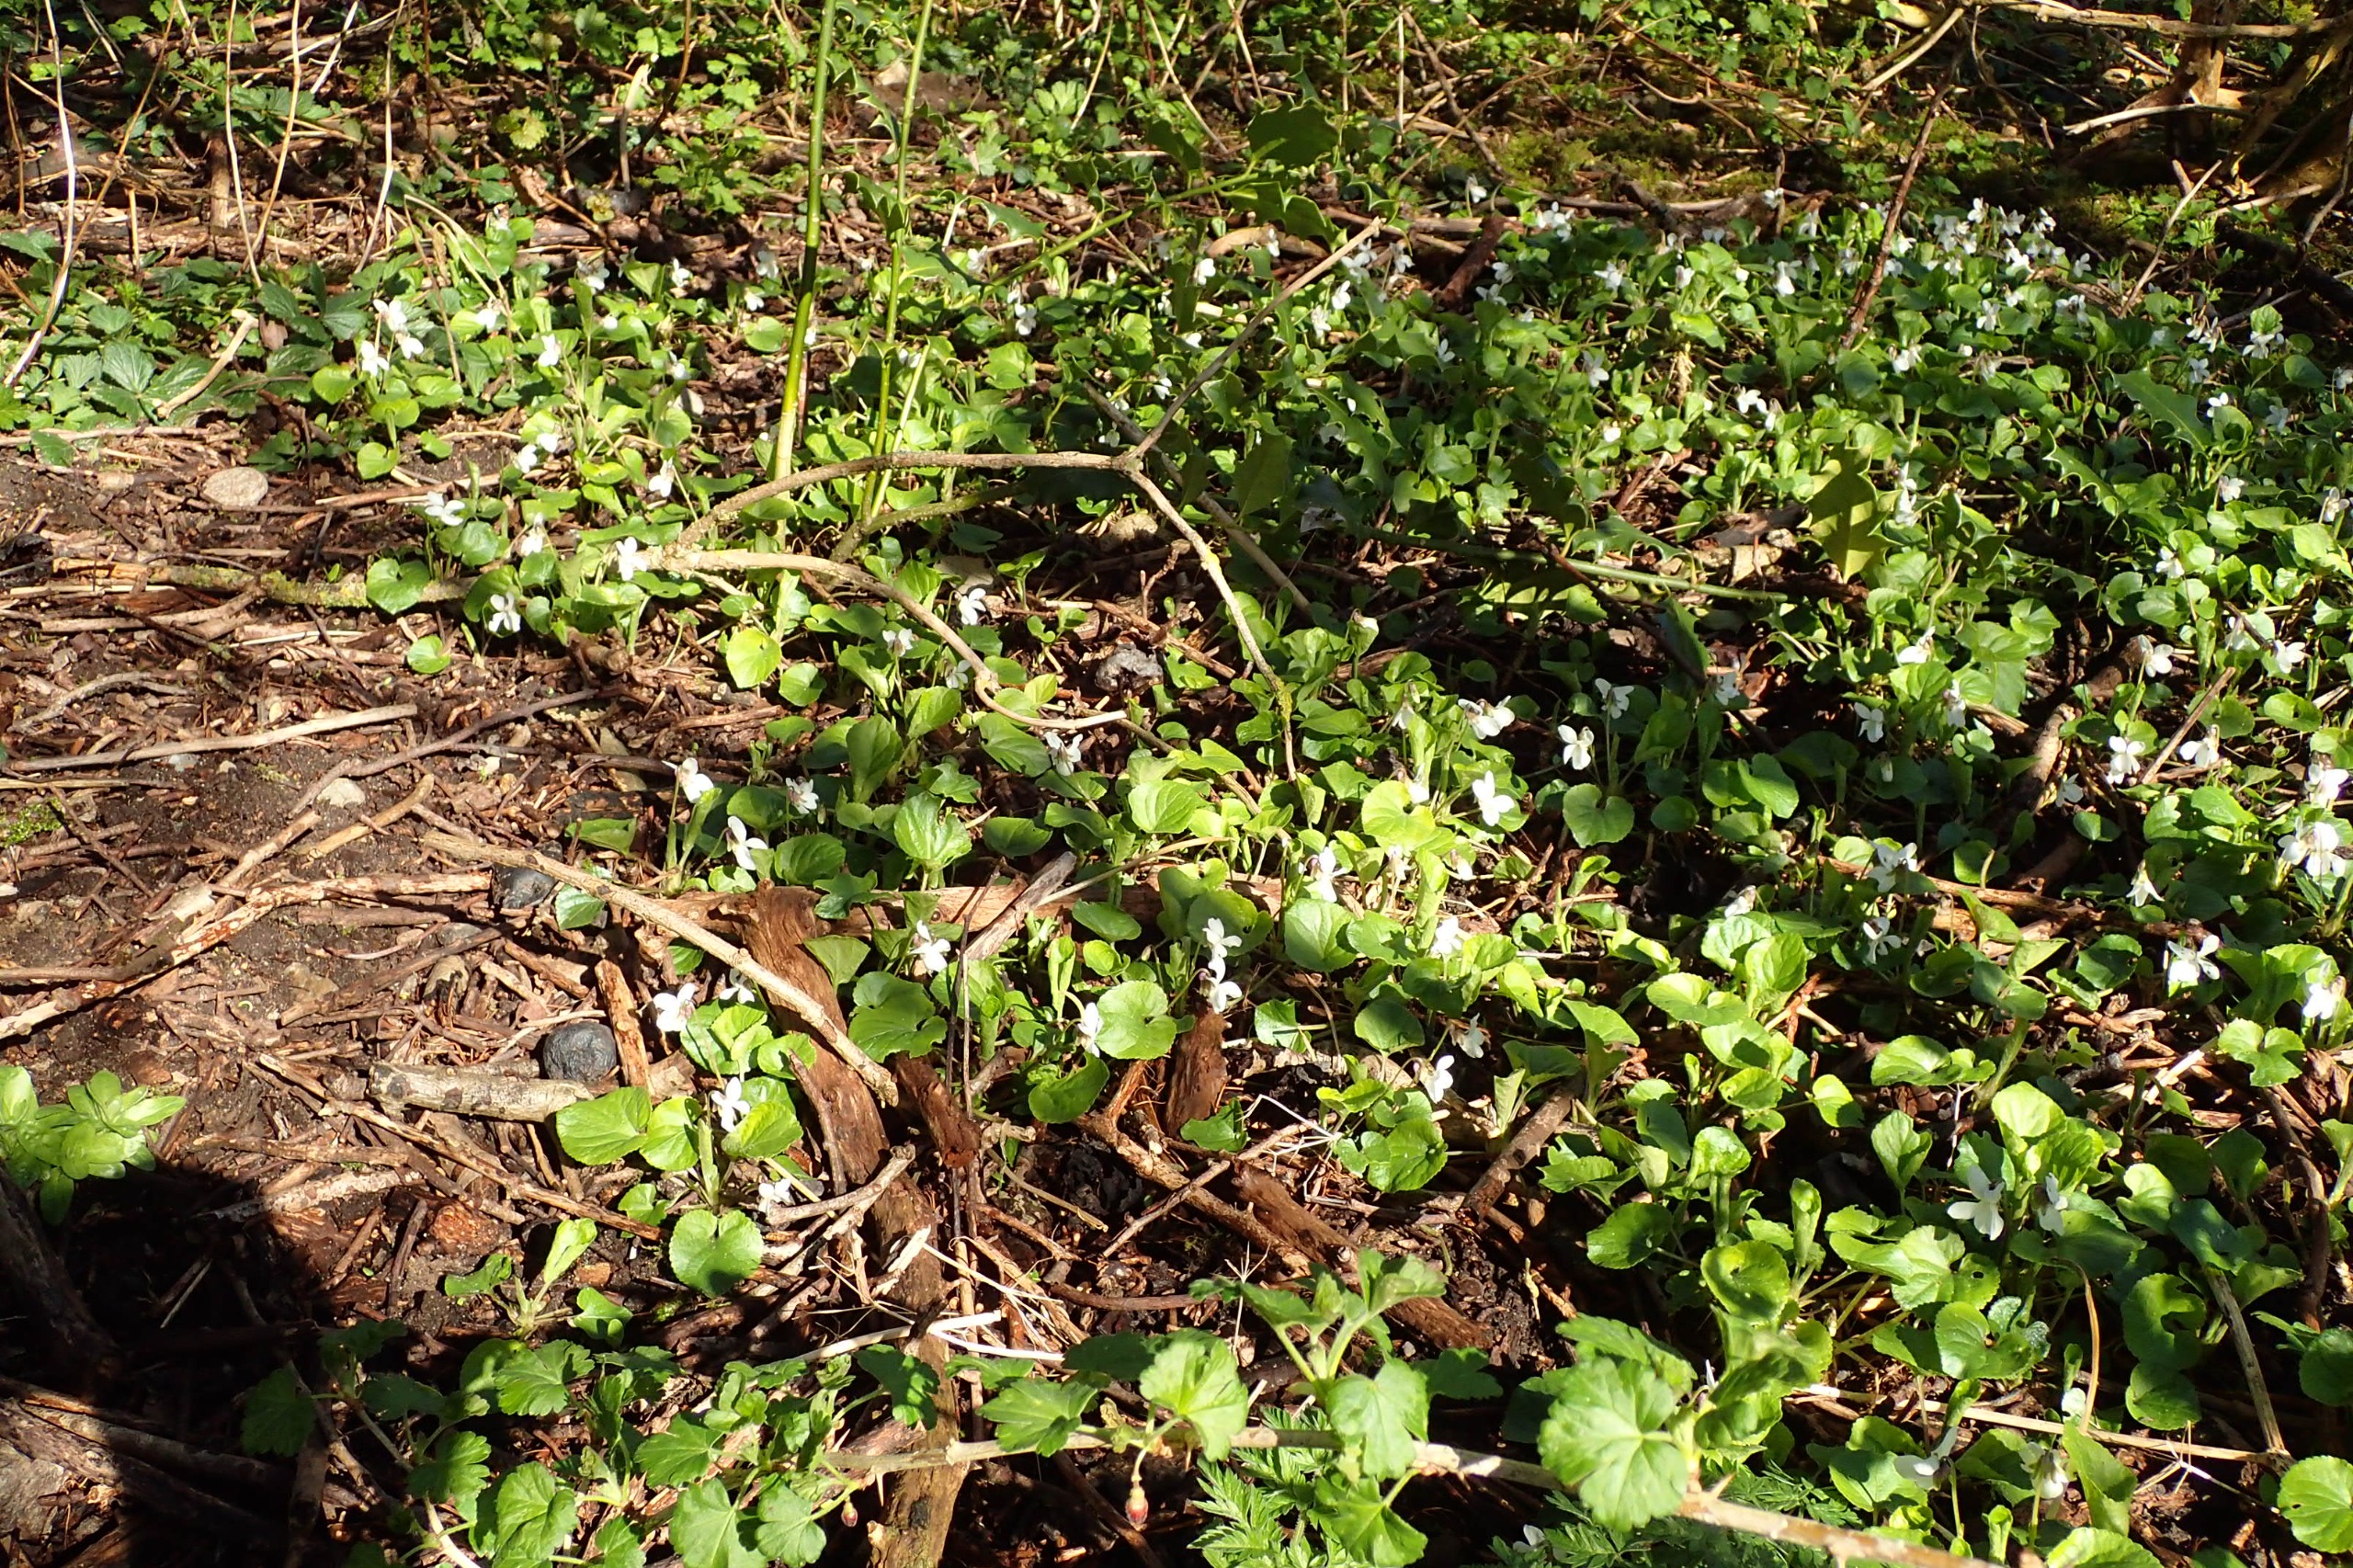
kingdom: Plantae
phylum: Tracheophyta
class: Magnoliopsida
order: Malpighiales
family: Violaceae
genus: Viola
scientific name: Viola odorata
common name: Marts-viol
